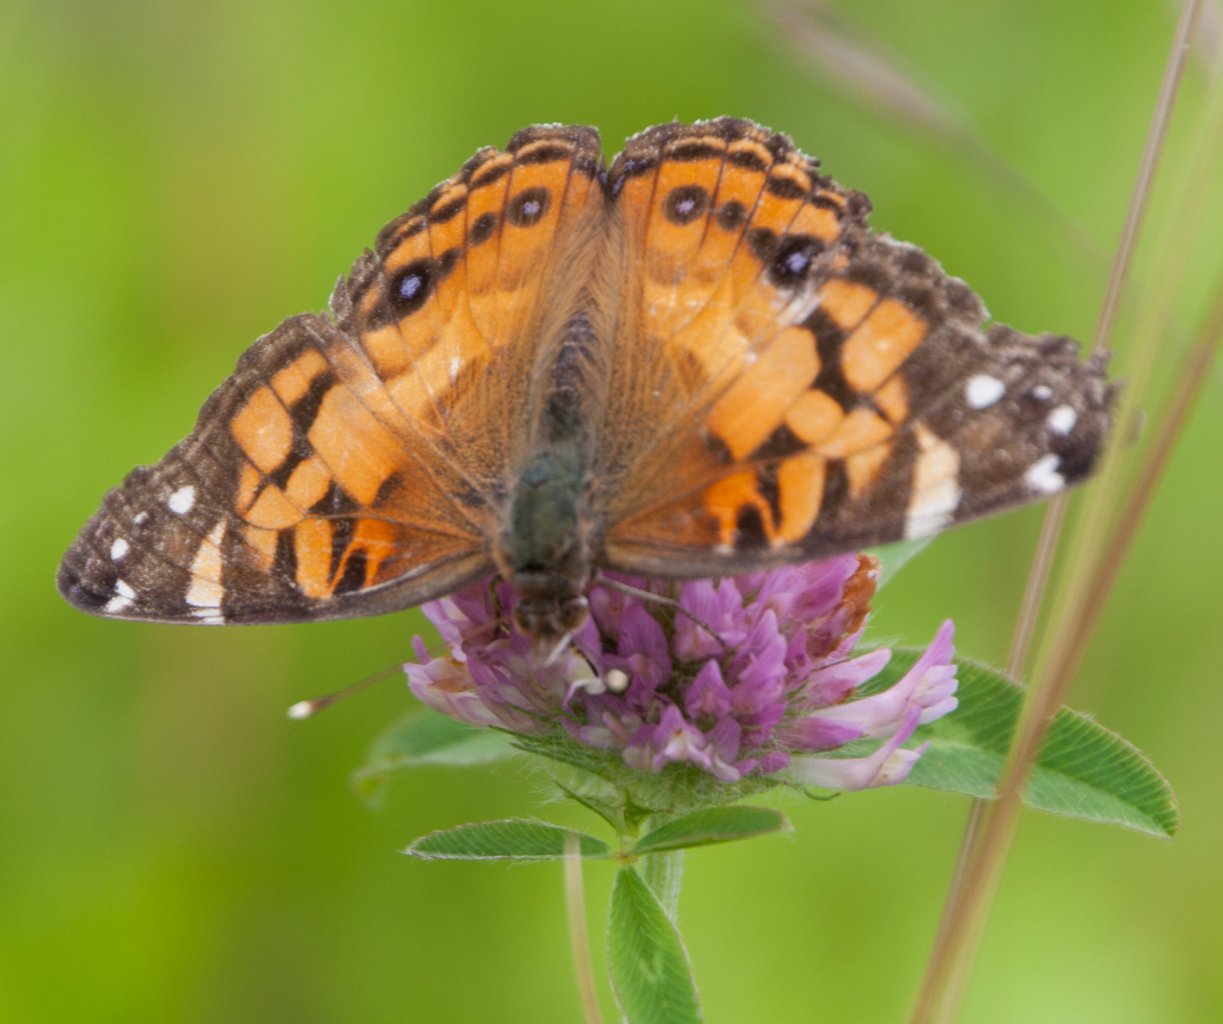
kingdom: Animalia
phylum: Arthropoda
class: Insecta
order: Lepidoptera
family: Nymphalidae
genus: Vanessa
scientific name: Vanessa virginiensis
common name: American Lady
